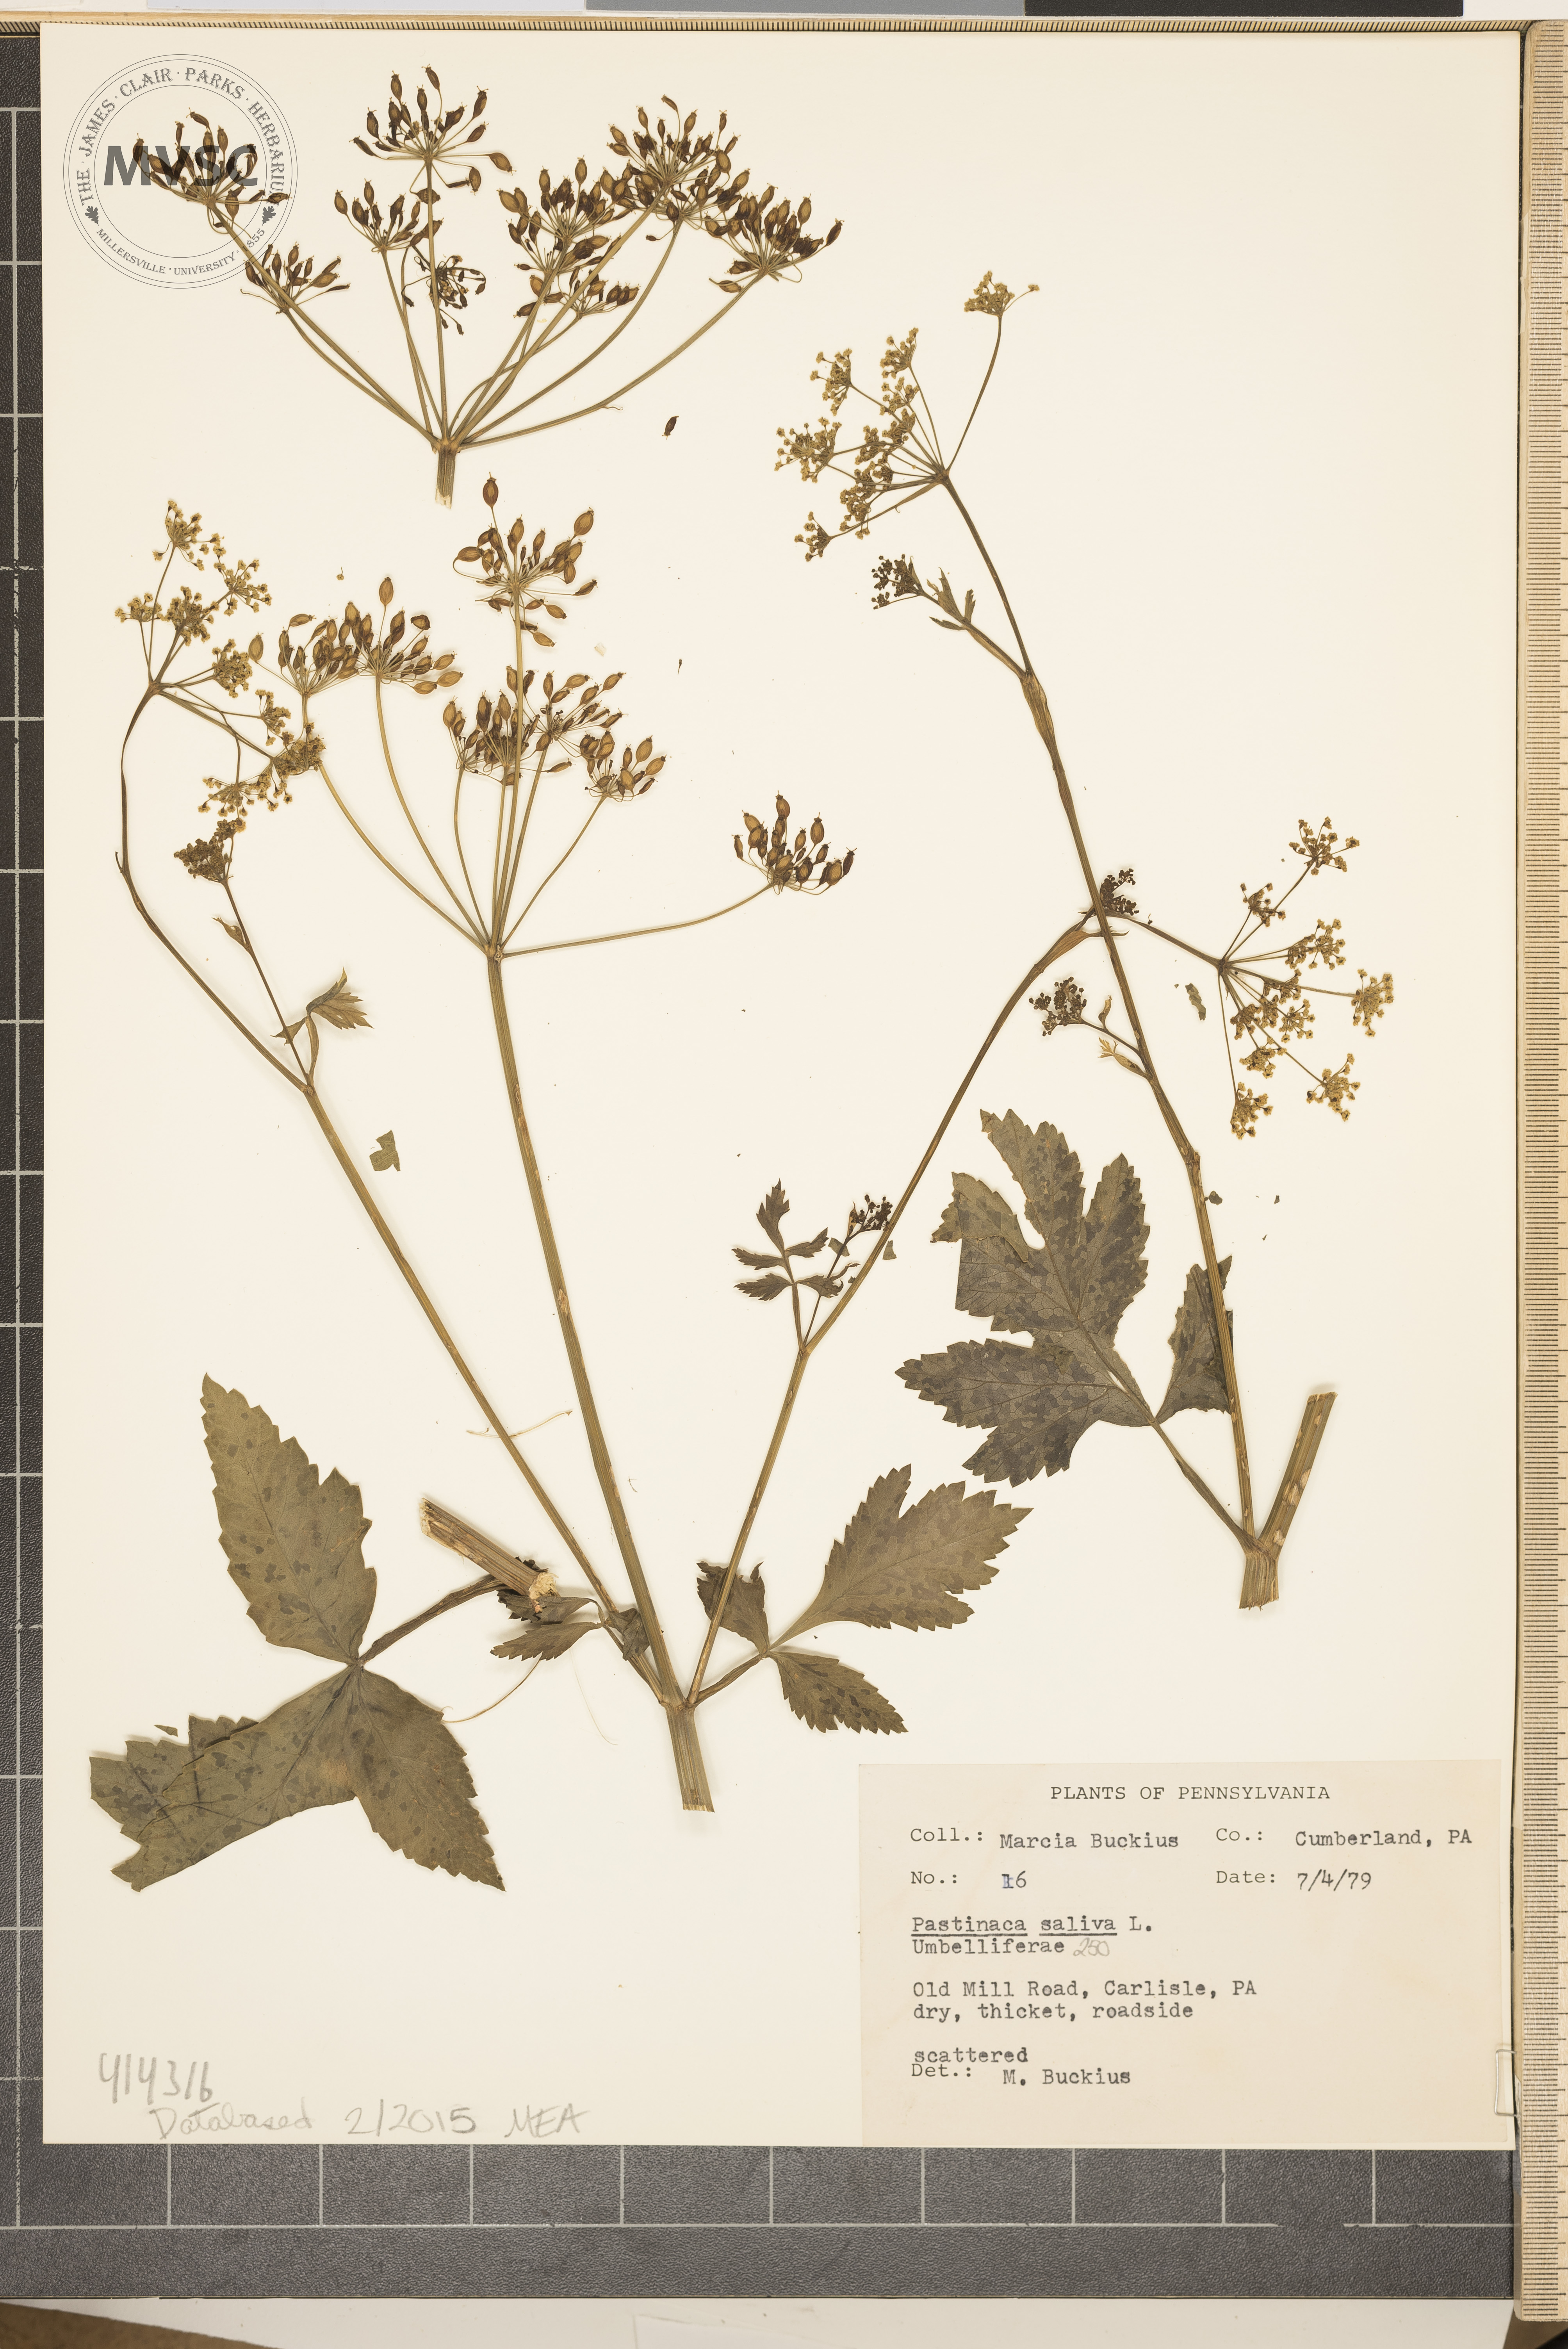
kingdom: Plantae
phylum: Tracheophyta
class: Magnoliopsida
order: Apiales
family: Apiaceae
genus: Pastinaca
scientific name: Pastinaca sativa
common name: Parsnip
